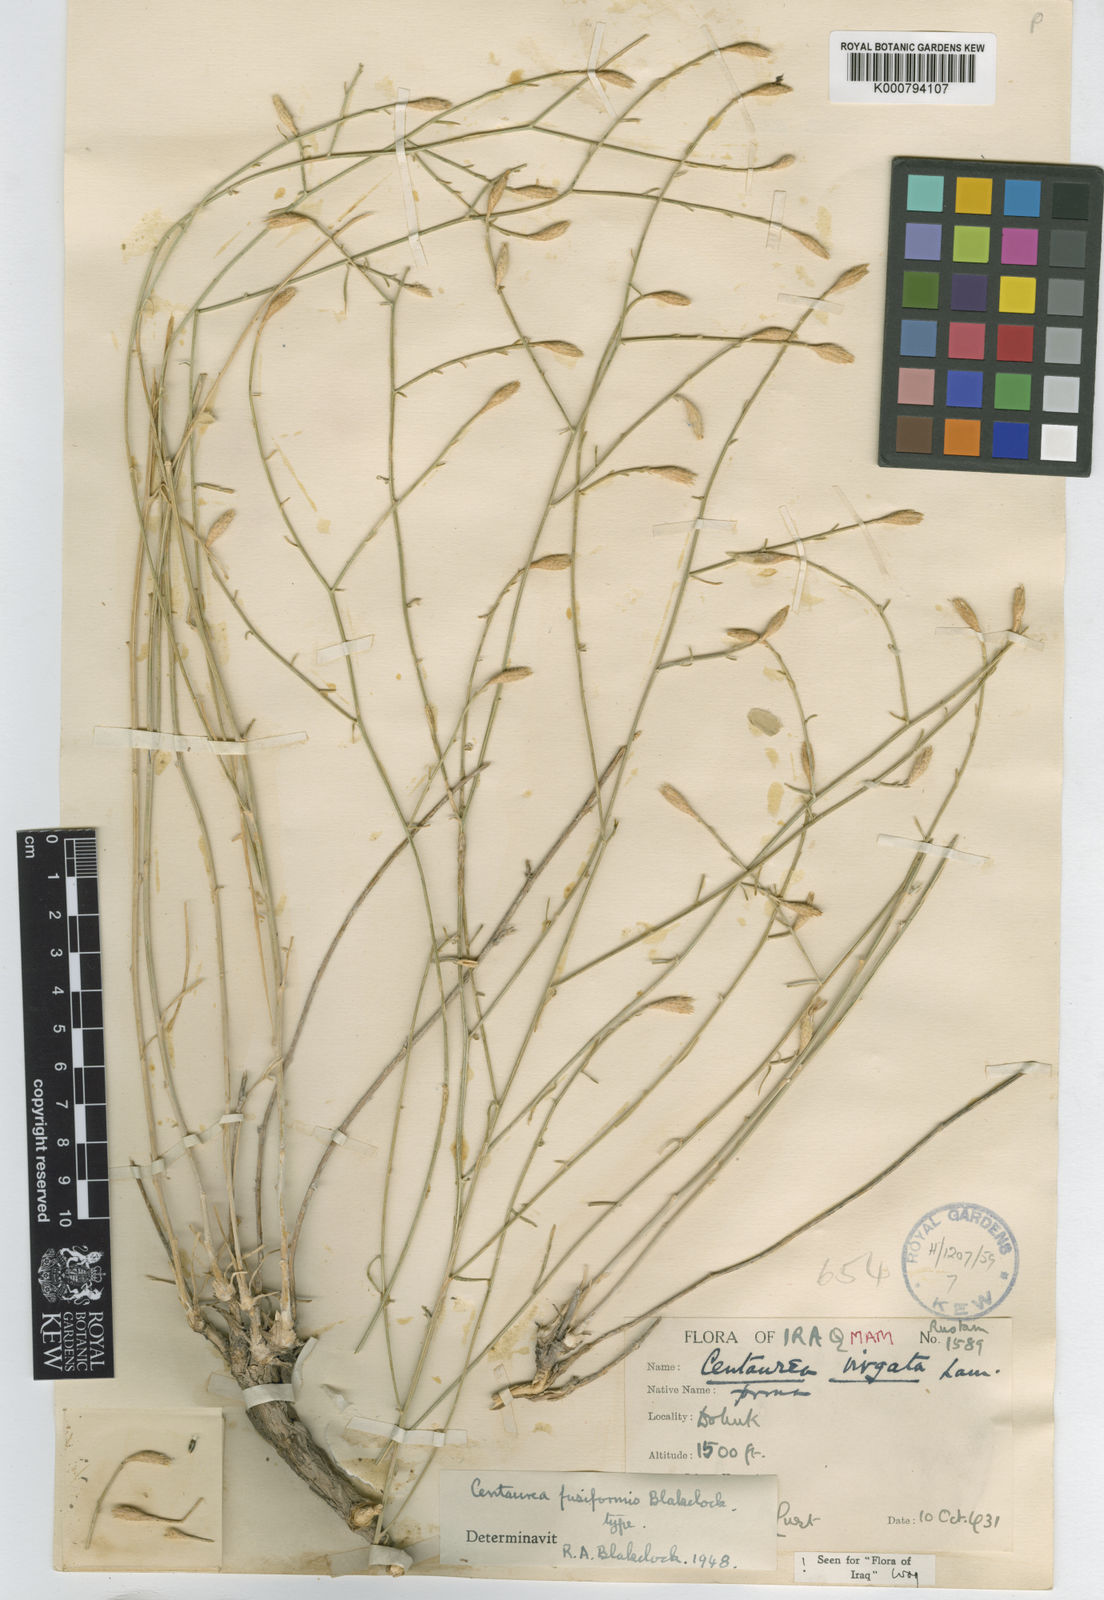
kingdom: Plantae
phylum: Tracheophyta
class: Magnoliopsida
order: Asterales
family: Asteraceae
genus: Centaurea
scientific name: Centaurea fusiformis
